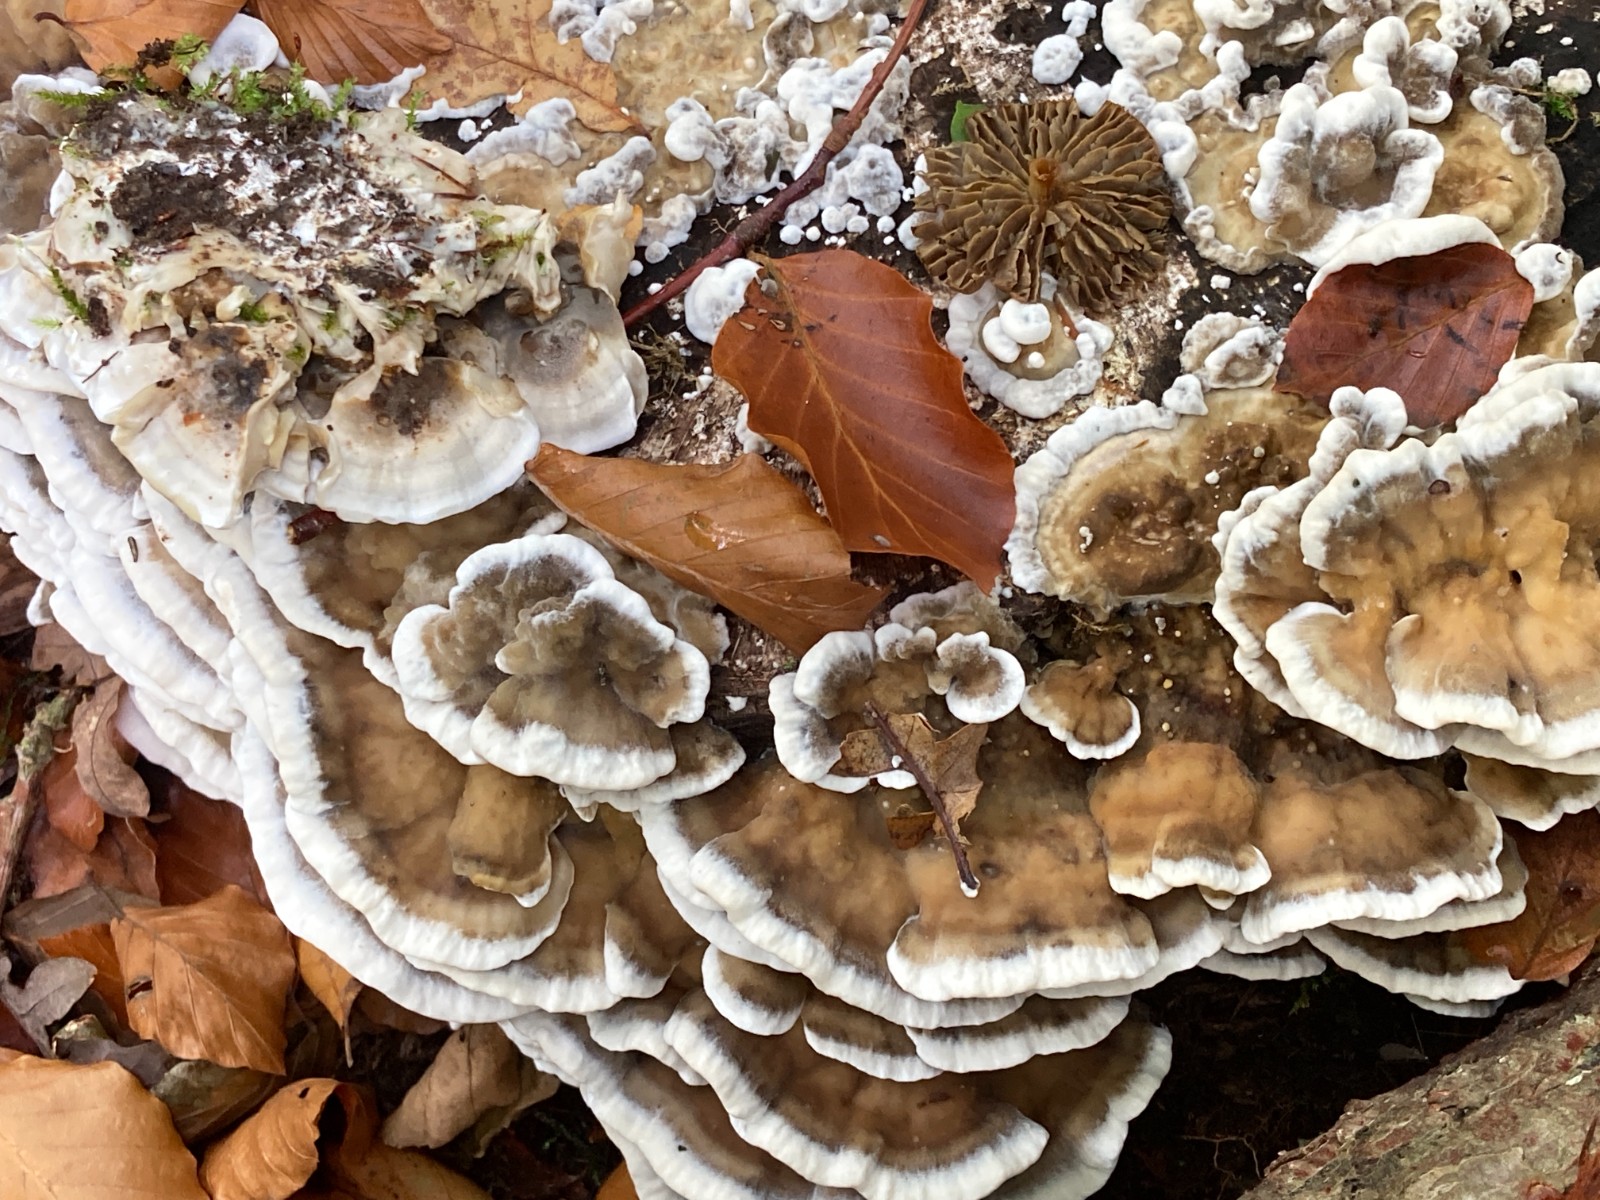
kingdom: Fungi
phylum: Basidiomycota
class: Agaricomycetes
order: Polyporales
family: Phanerochaetaceae
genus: Bjerkandera
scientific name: Bjerkandera adusta
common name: sveden sodporesvamp
